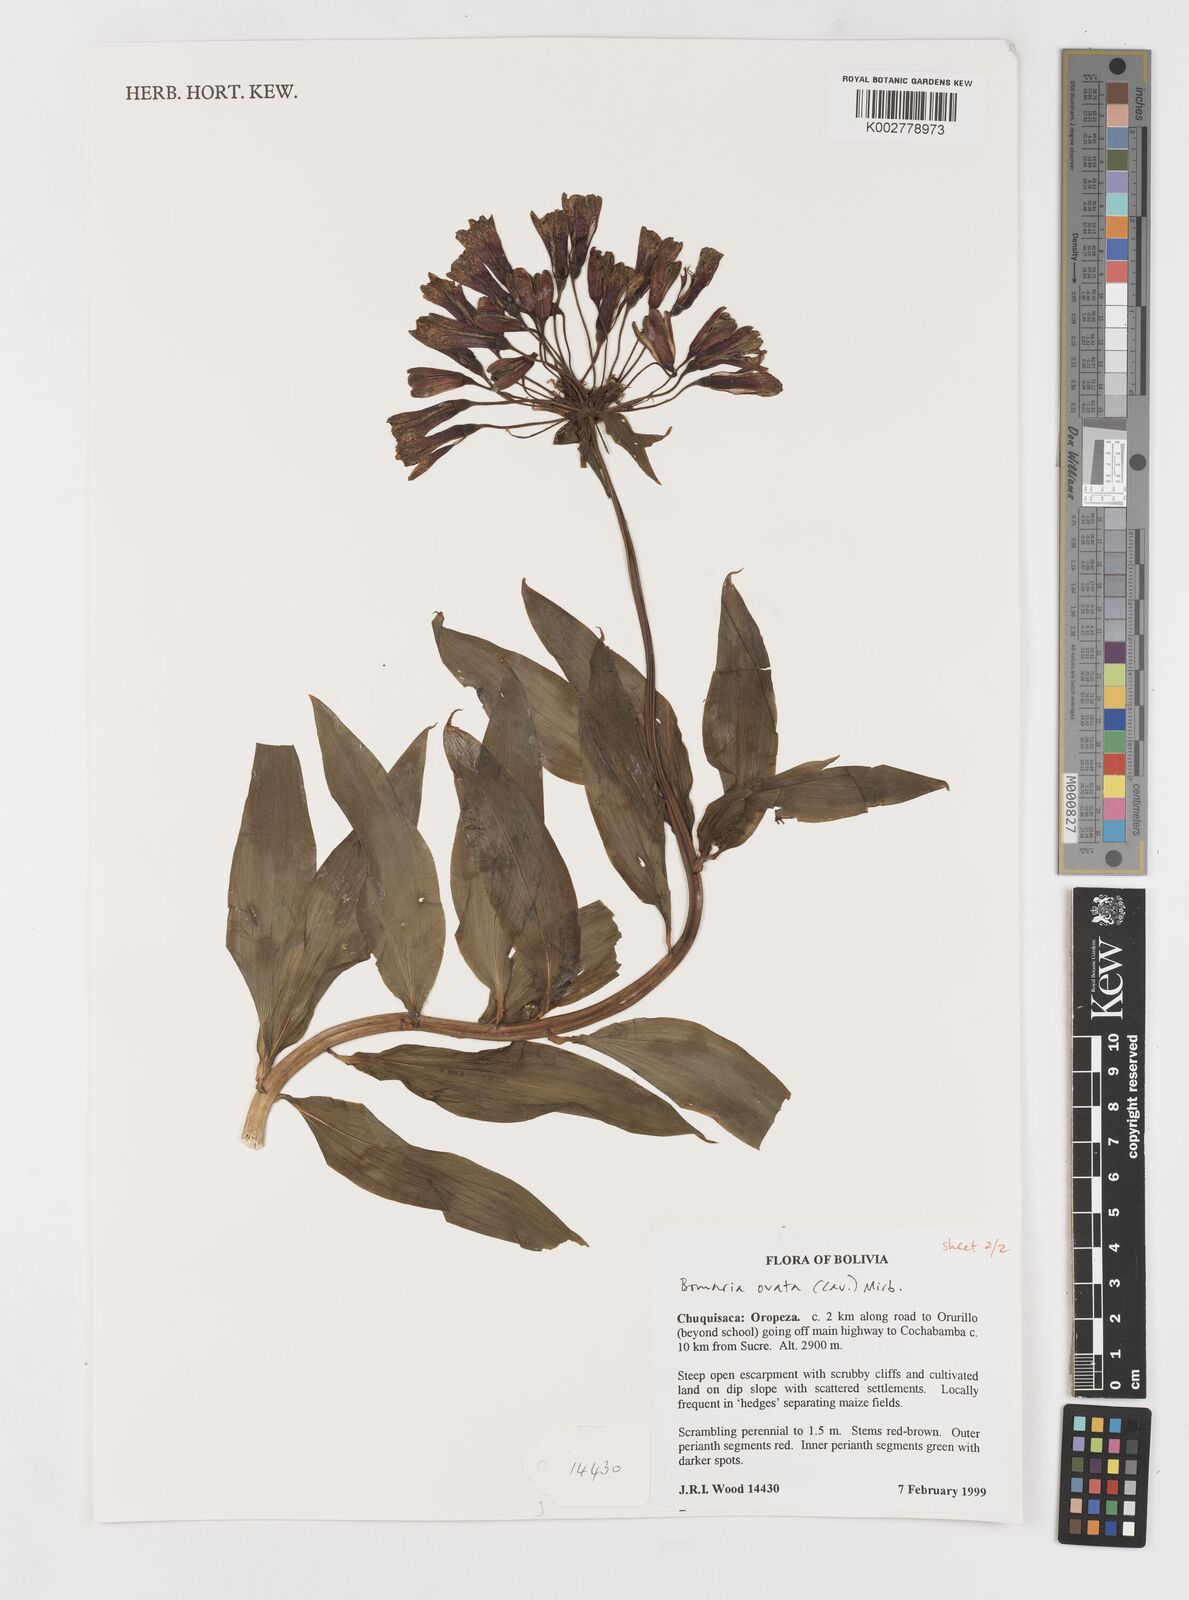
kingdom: Plantae
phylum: Tracheophyta
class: Liliopsida
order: Liliales
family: Alstroemeriaceae
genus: Bomarea
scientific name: Bomarea ovata
